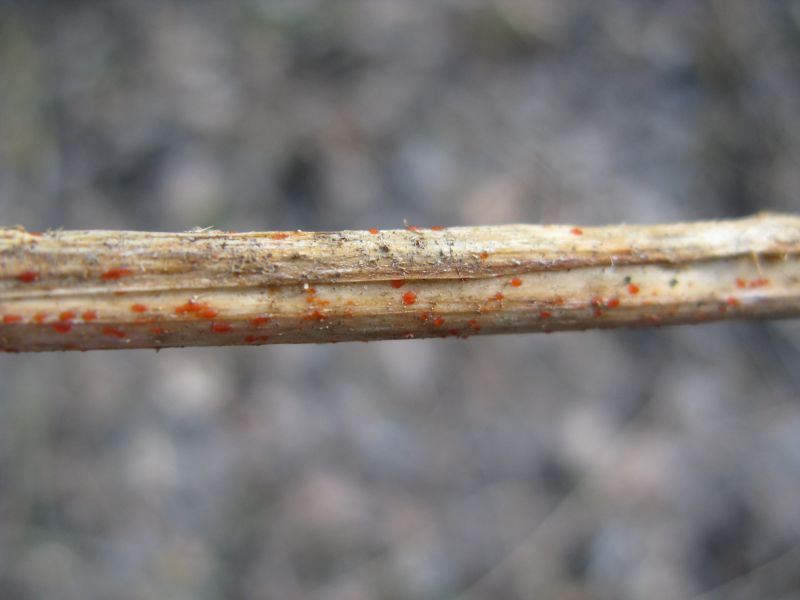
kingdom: Fungi
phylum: Ascomycota
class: Leotiomycetes
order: Helotiales
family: Calloriaceae
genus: Calloria
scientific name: Calloria urticae
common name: nælde-orangeskive
